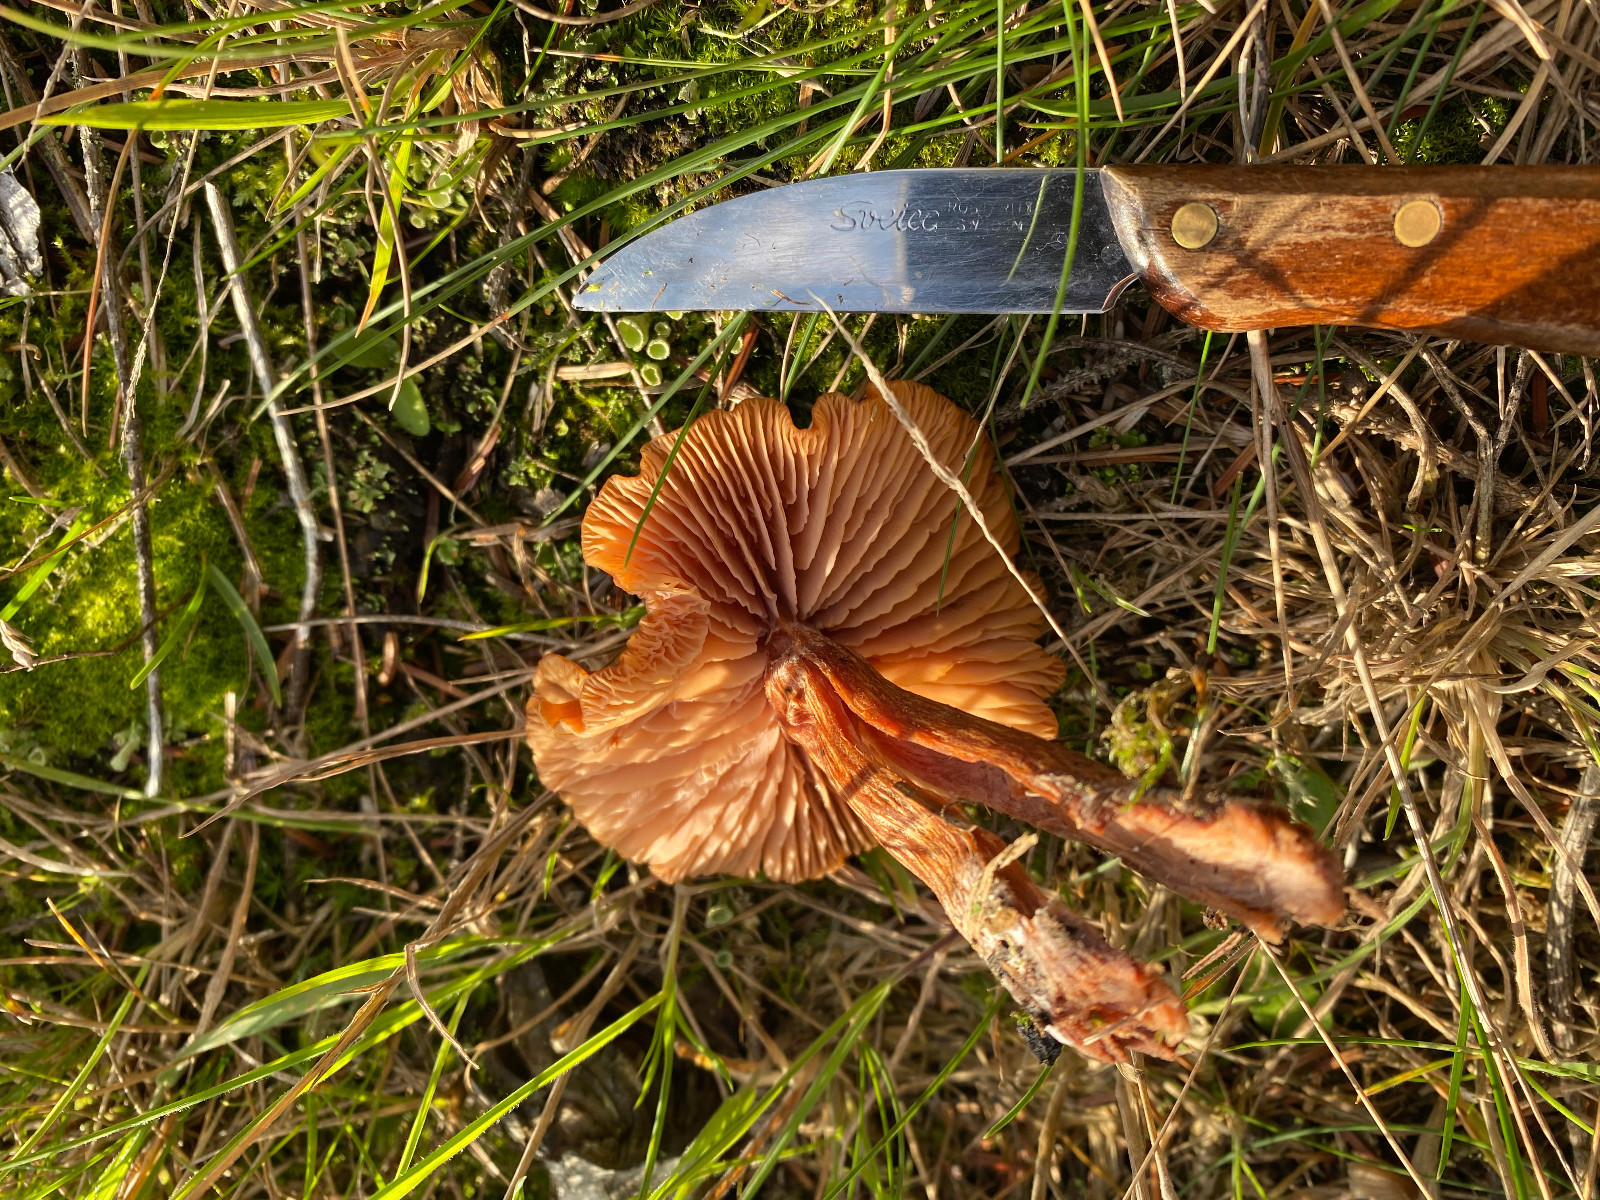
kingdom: Fungi
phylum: Basidiomycota
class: Agaricomycetes
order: Agaricales
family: Hydnangiaceae
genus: Laccaria
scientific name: Laccaria
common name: ametysthat
